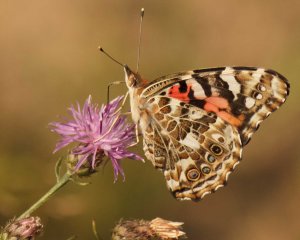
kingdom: Animalia
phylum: Arthropoda
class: Insecta
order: Lepidoptera
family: Nymphalidae
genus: Vanessa
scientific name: Vanessa cardui
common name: Painted Lady
